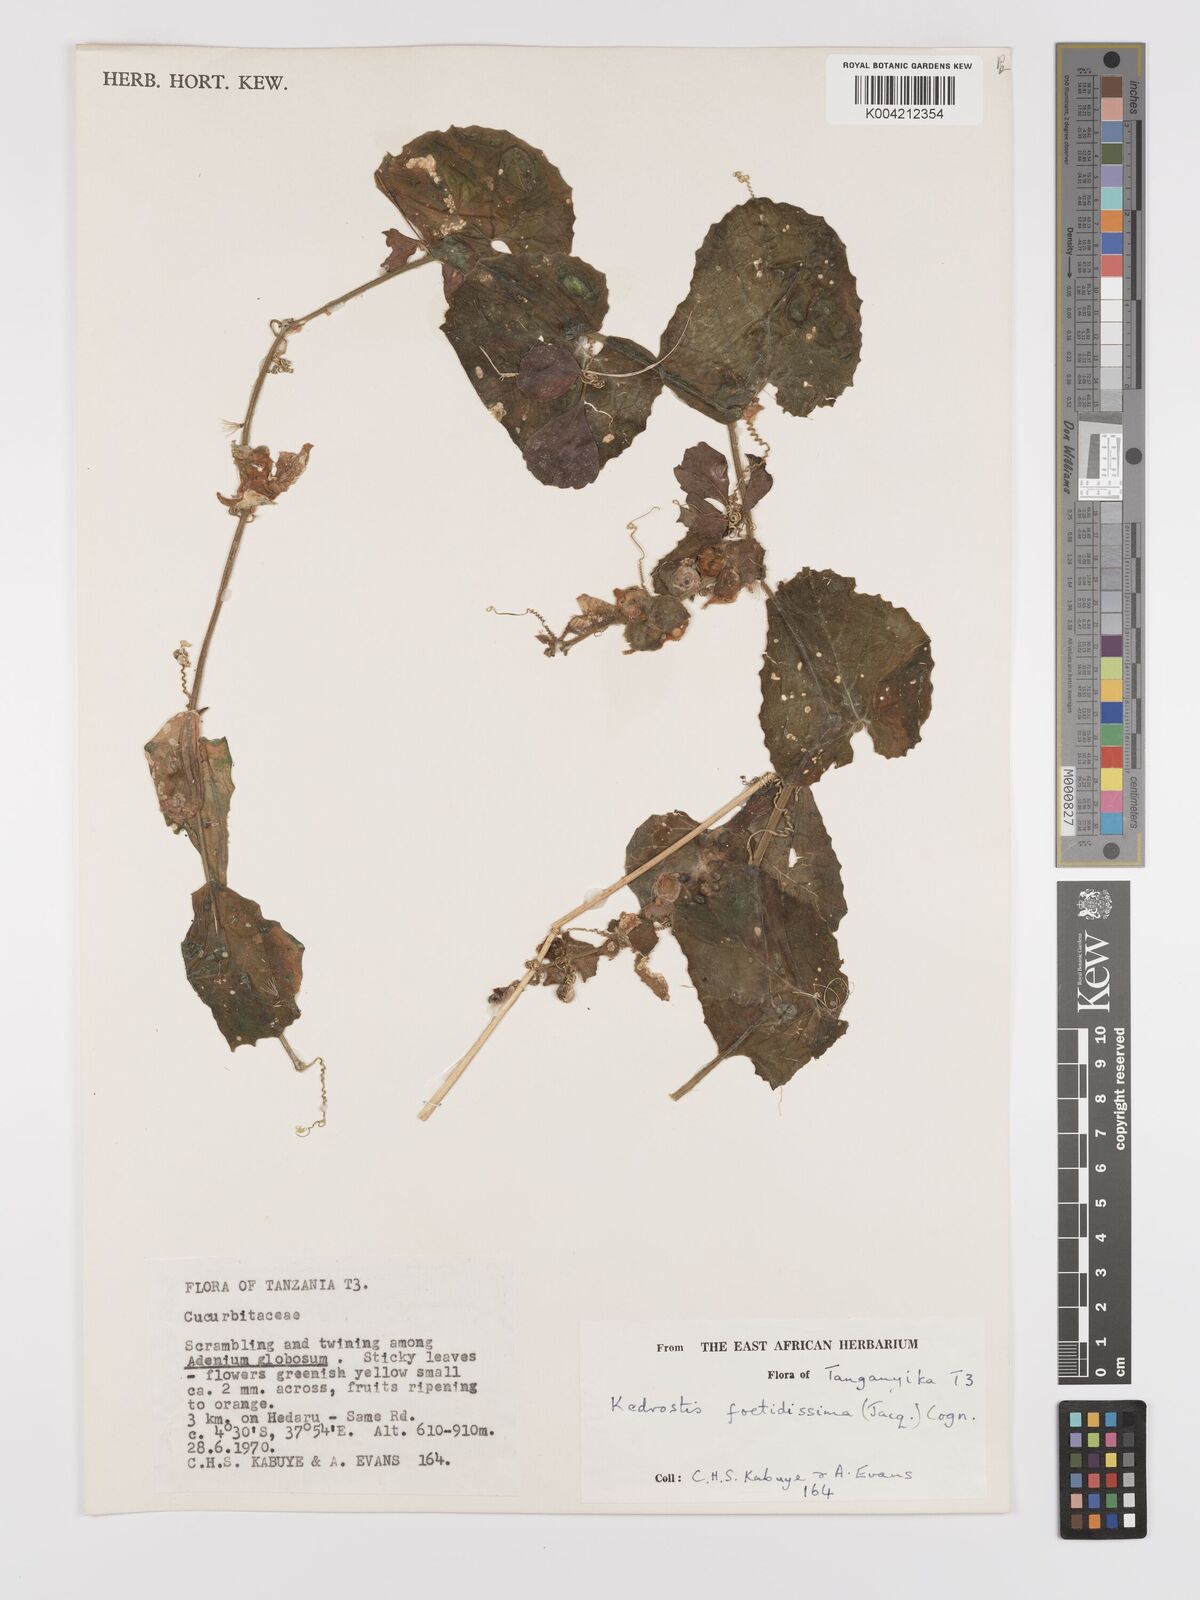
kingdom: Plantae
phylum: Tracheophyta
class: Magnoliopsida
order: Cucurbitales
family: Cucurbitaceae
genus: Kedrostis
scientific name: Kedrostis foetidissima
